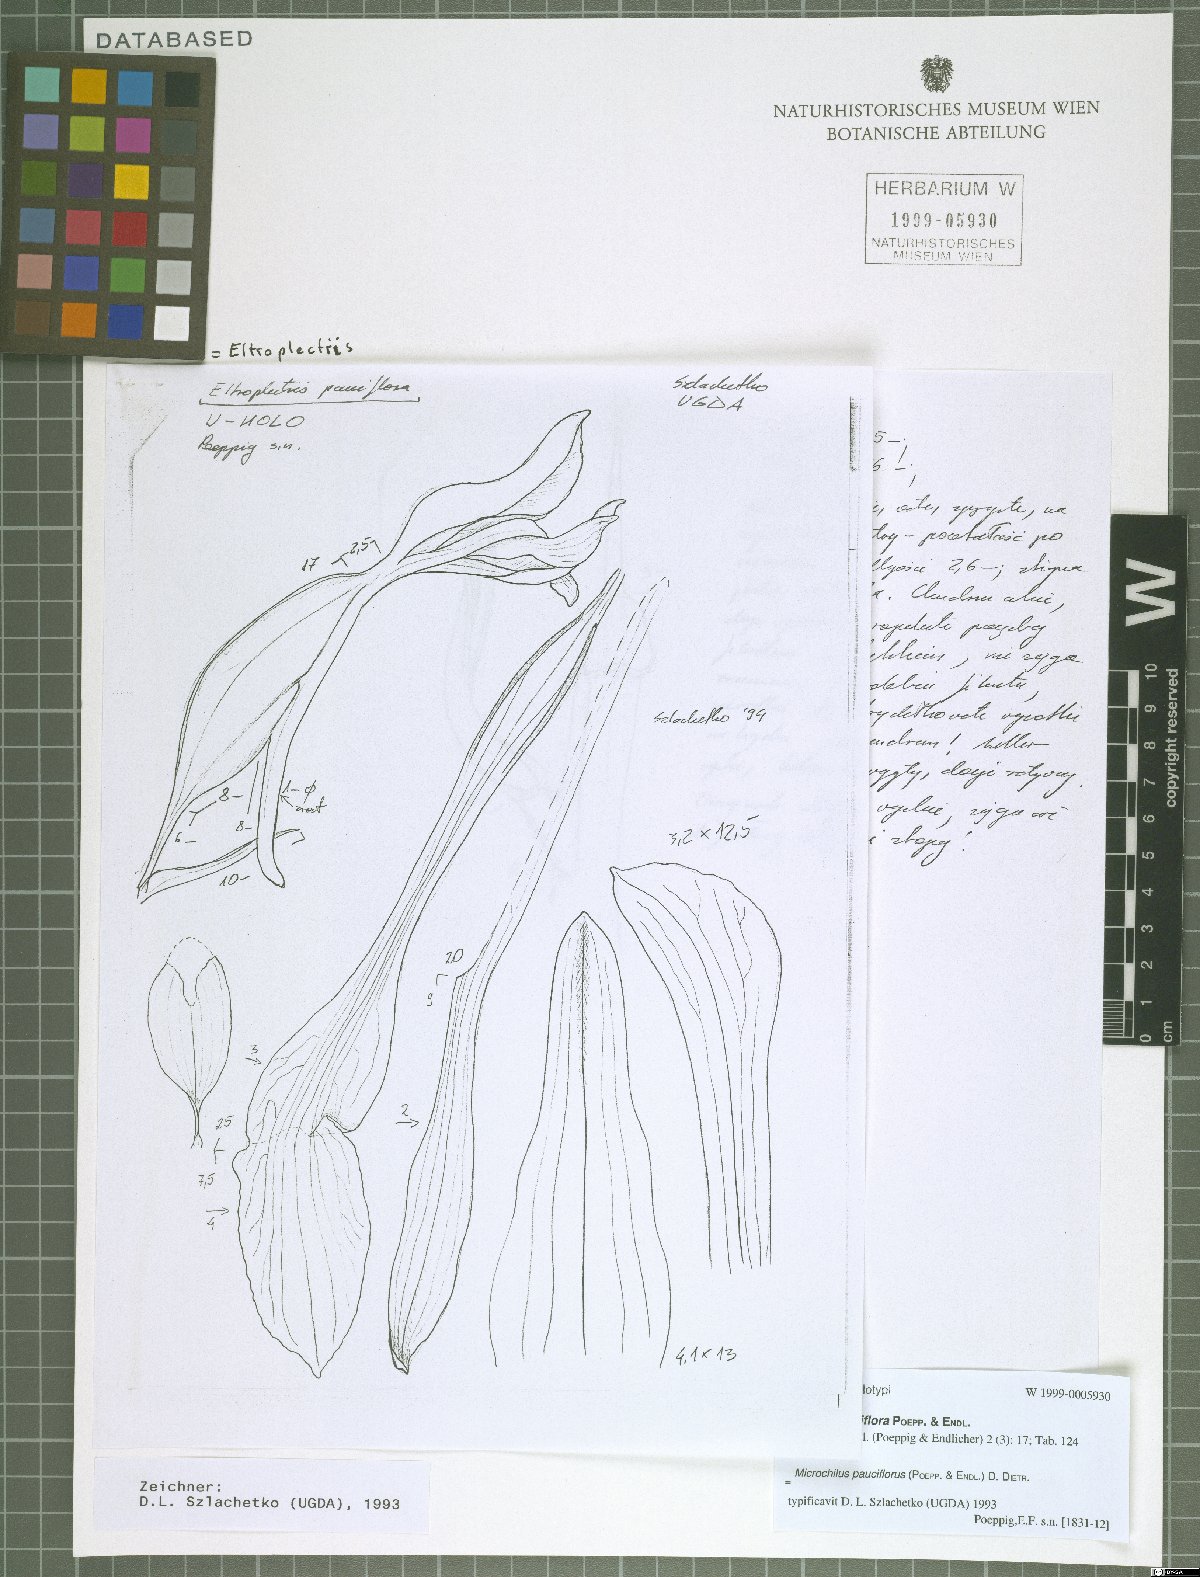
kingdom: Plantae
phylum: Tracheophyta
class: Liliopsida
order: Asparagales
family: Orchidaceae
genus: Microchilus
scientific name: Microchilus pauciflorus
